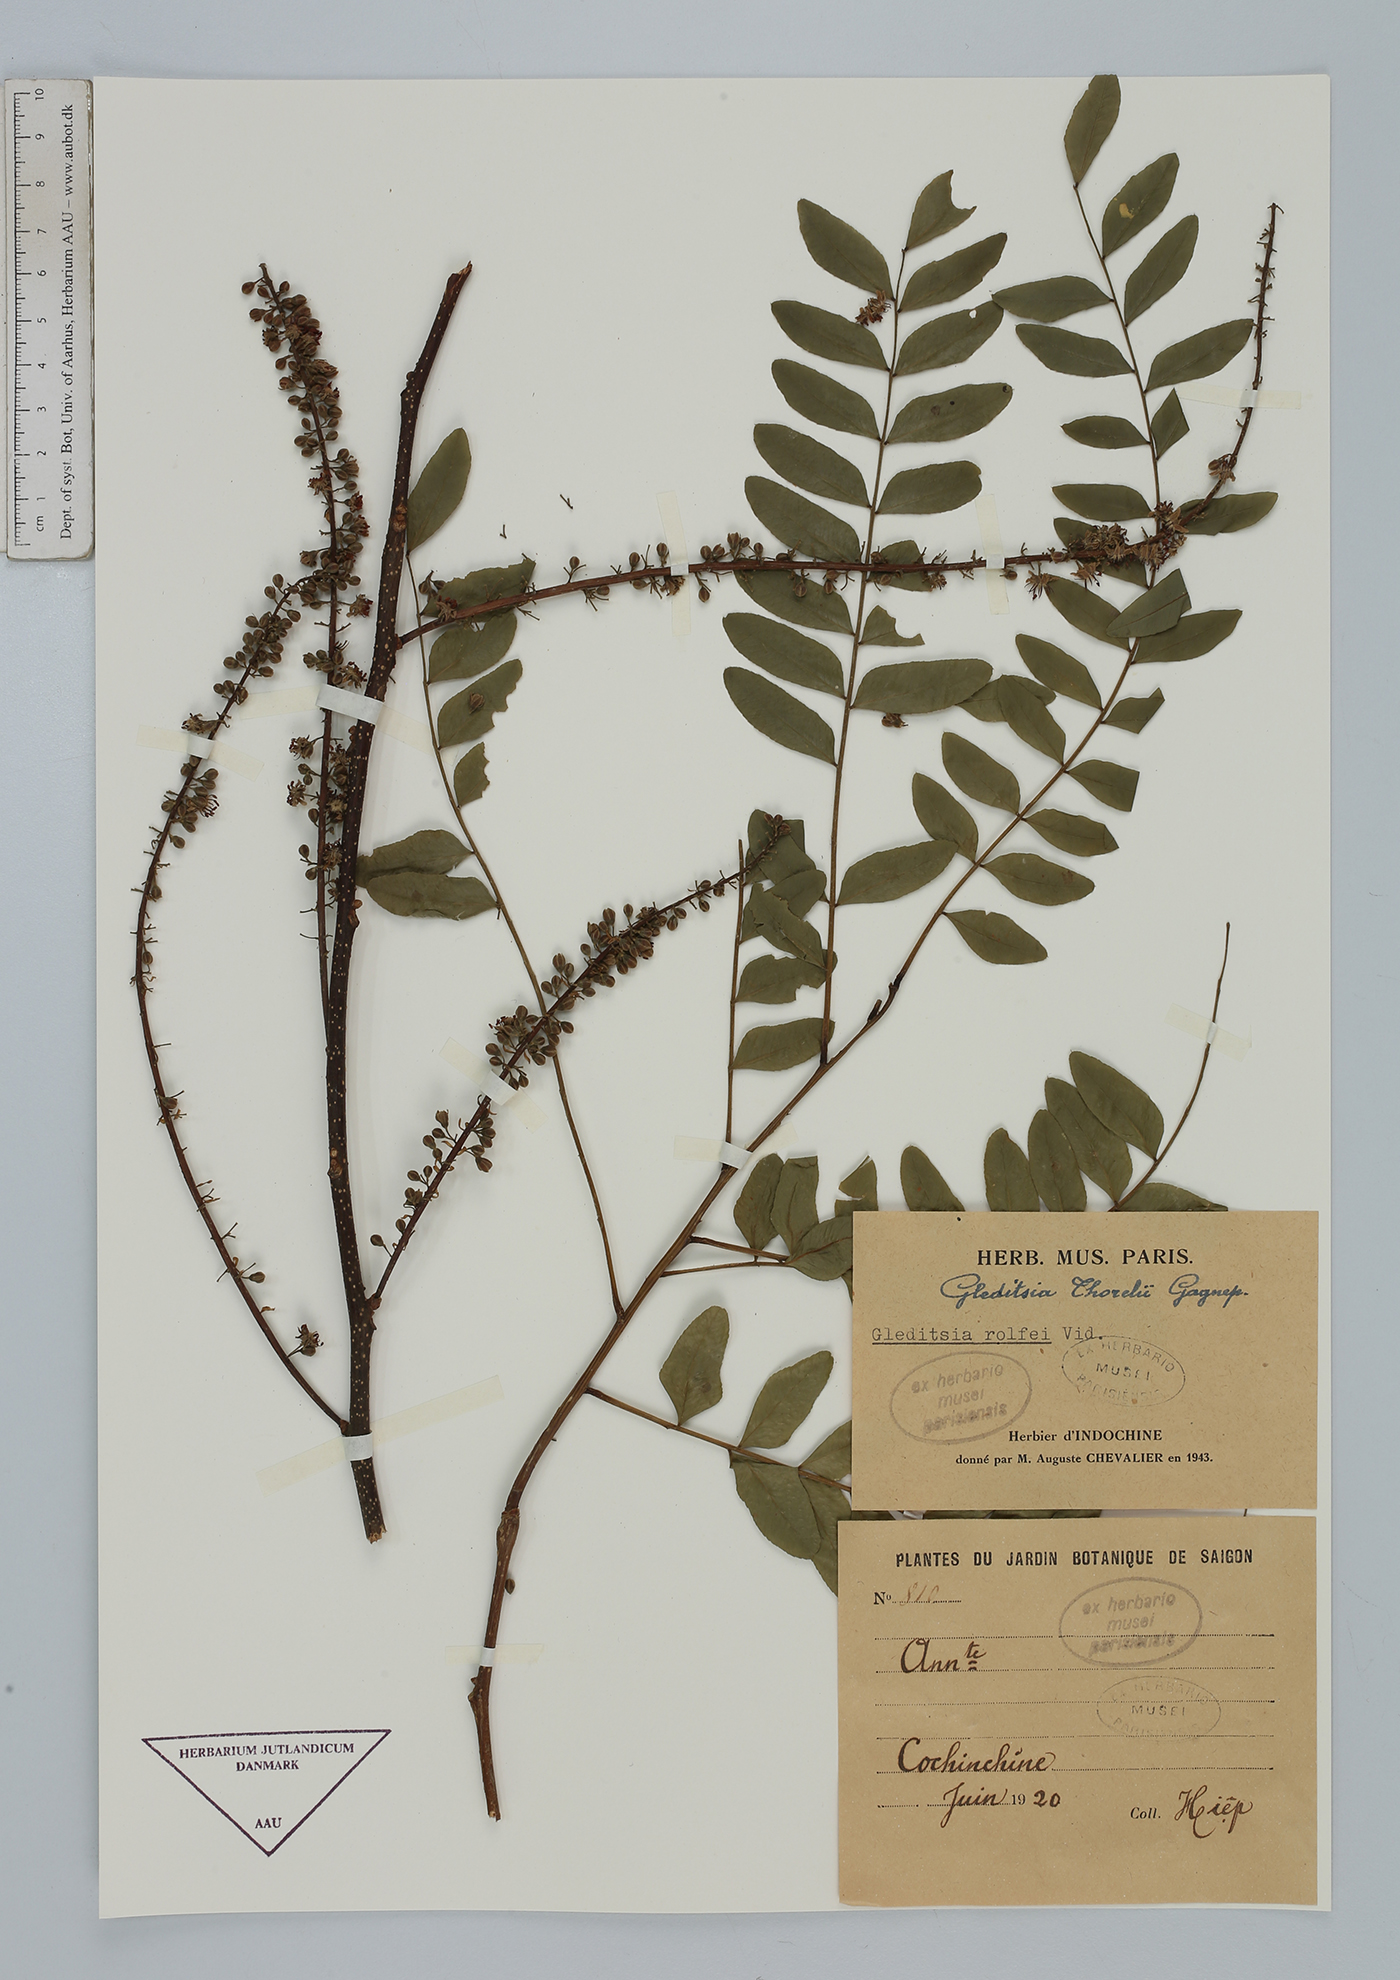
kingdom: Plantae
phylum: Tracheophyta
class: Magnoliopsida
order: Fabales
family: Fabaceae
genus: Gleditsia
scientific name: Gleditsia fera
